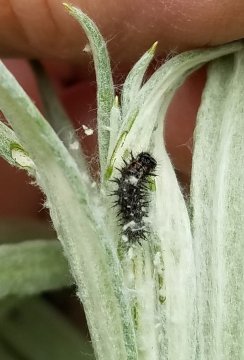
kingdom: Animalia
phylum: Arthropoda
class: Insecta
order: Lepidoptera
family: Nymphalidae
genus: Vanessa
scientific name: Vanessa virginiensis
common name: American Lady
